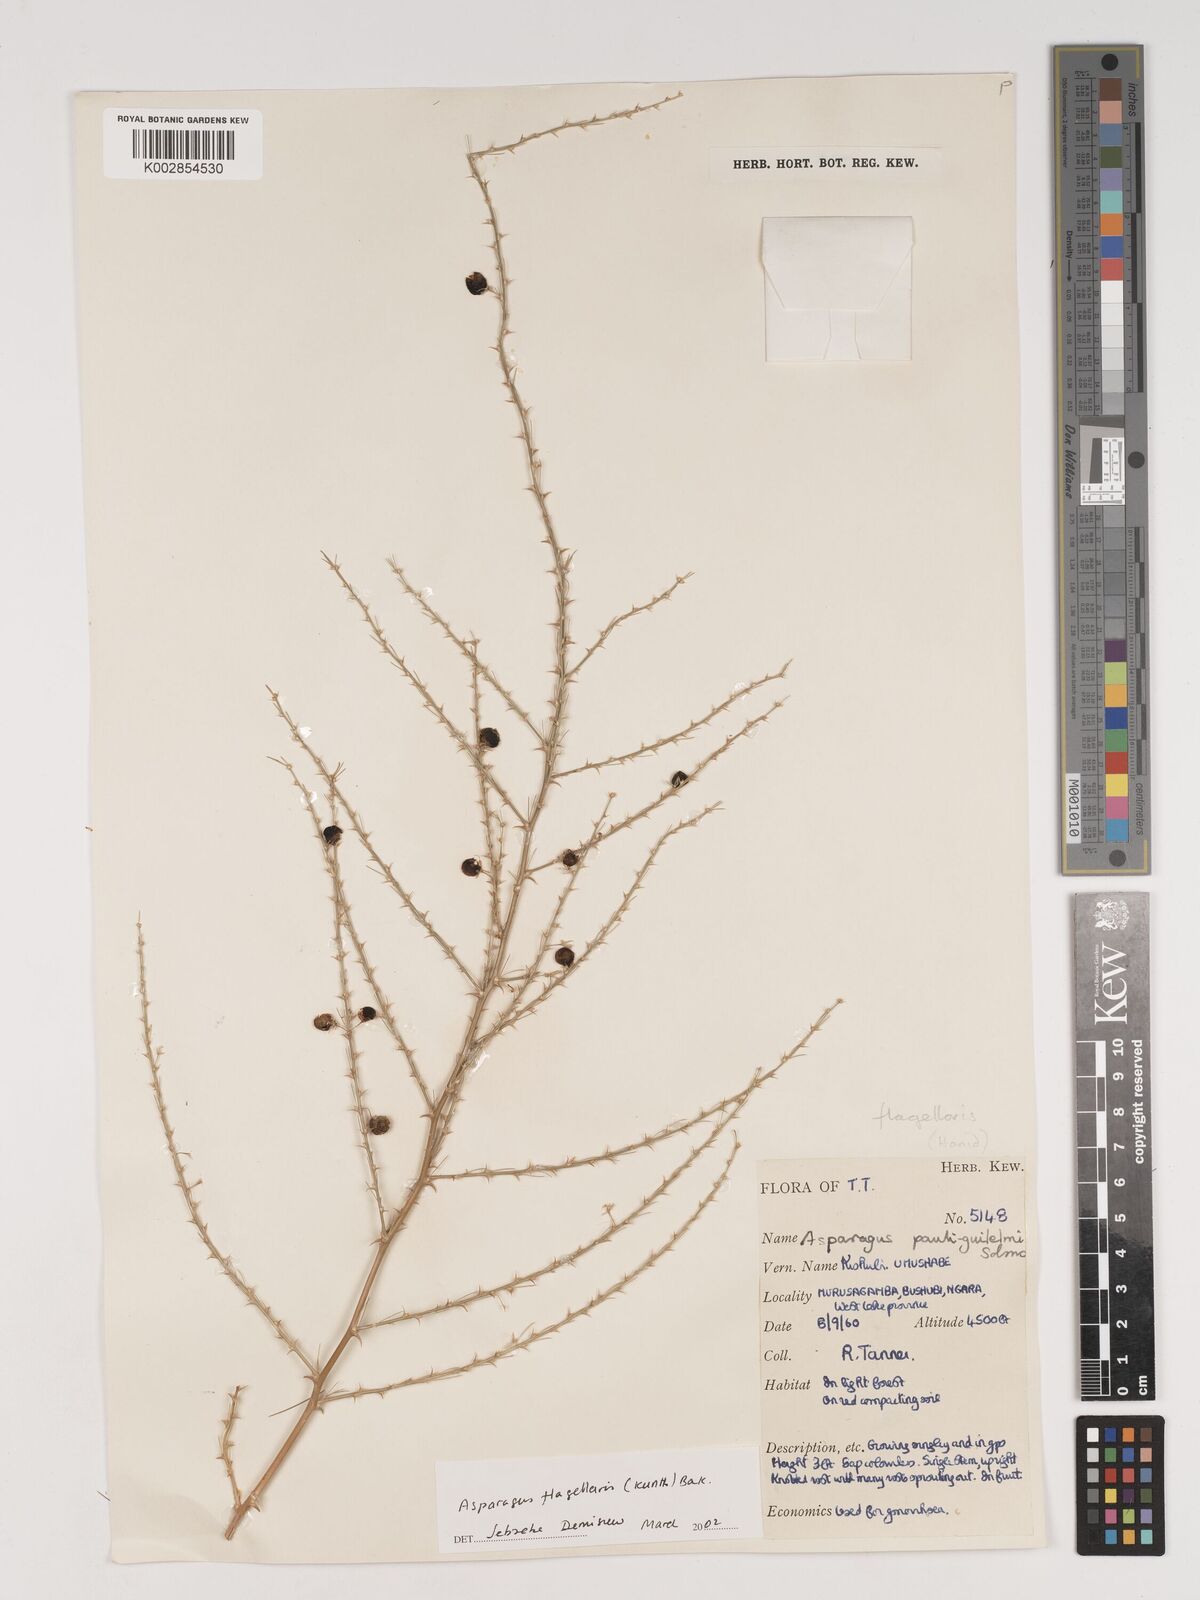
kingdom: Plantae
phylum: Tracheophyta
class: Liliopsida
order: Asparagales
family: Asparagaceae
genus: Asparagus
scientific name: Asparagus flagellaris
